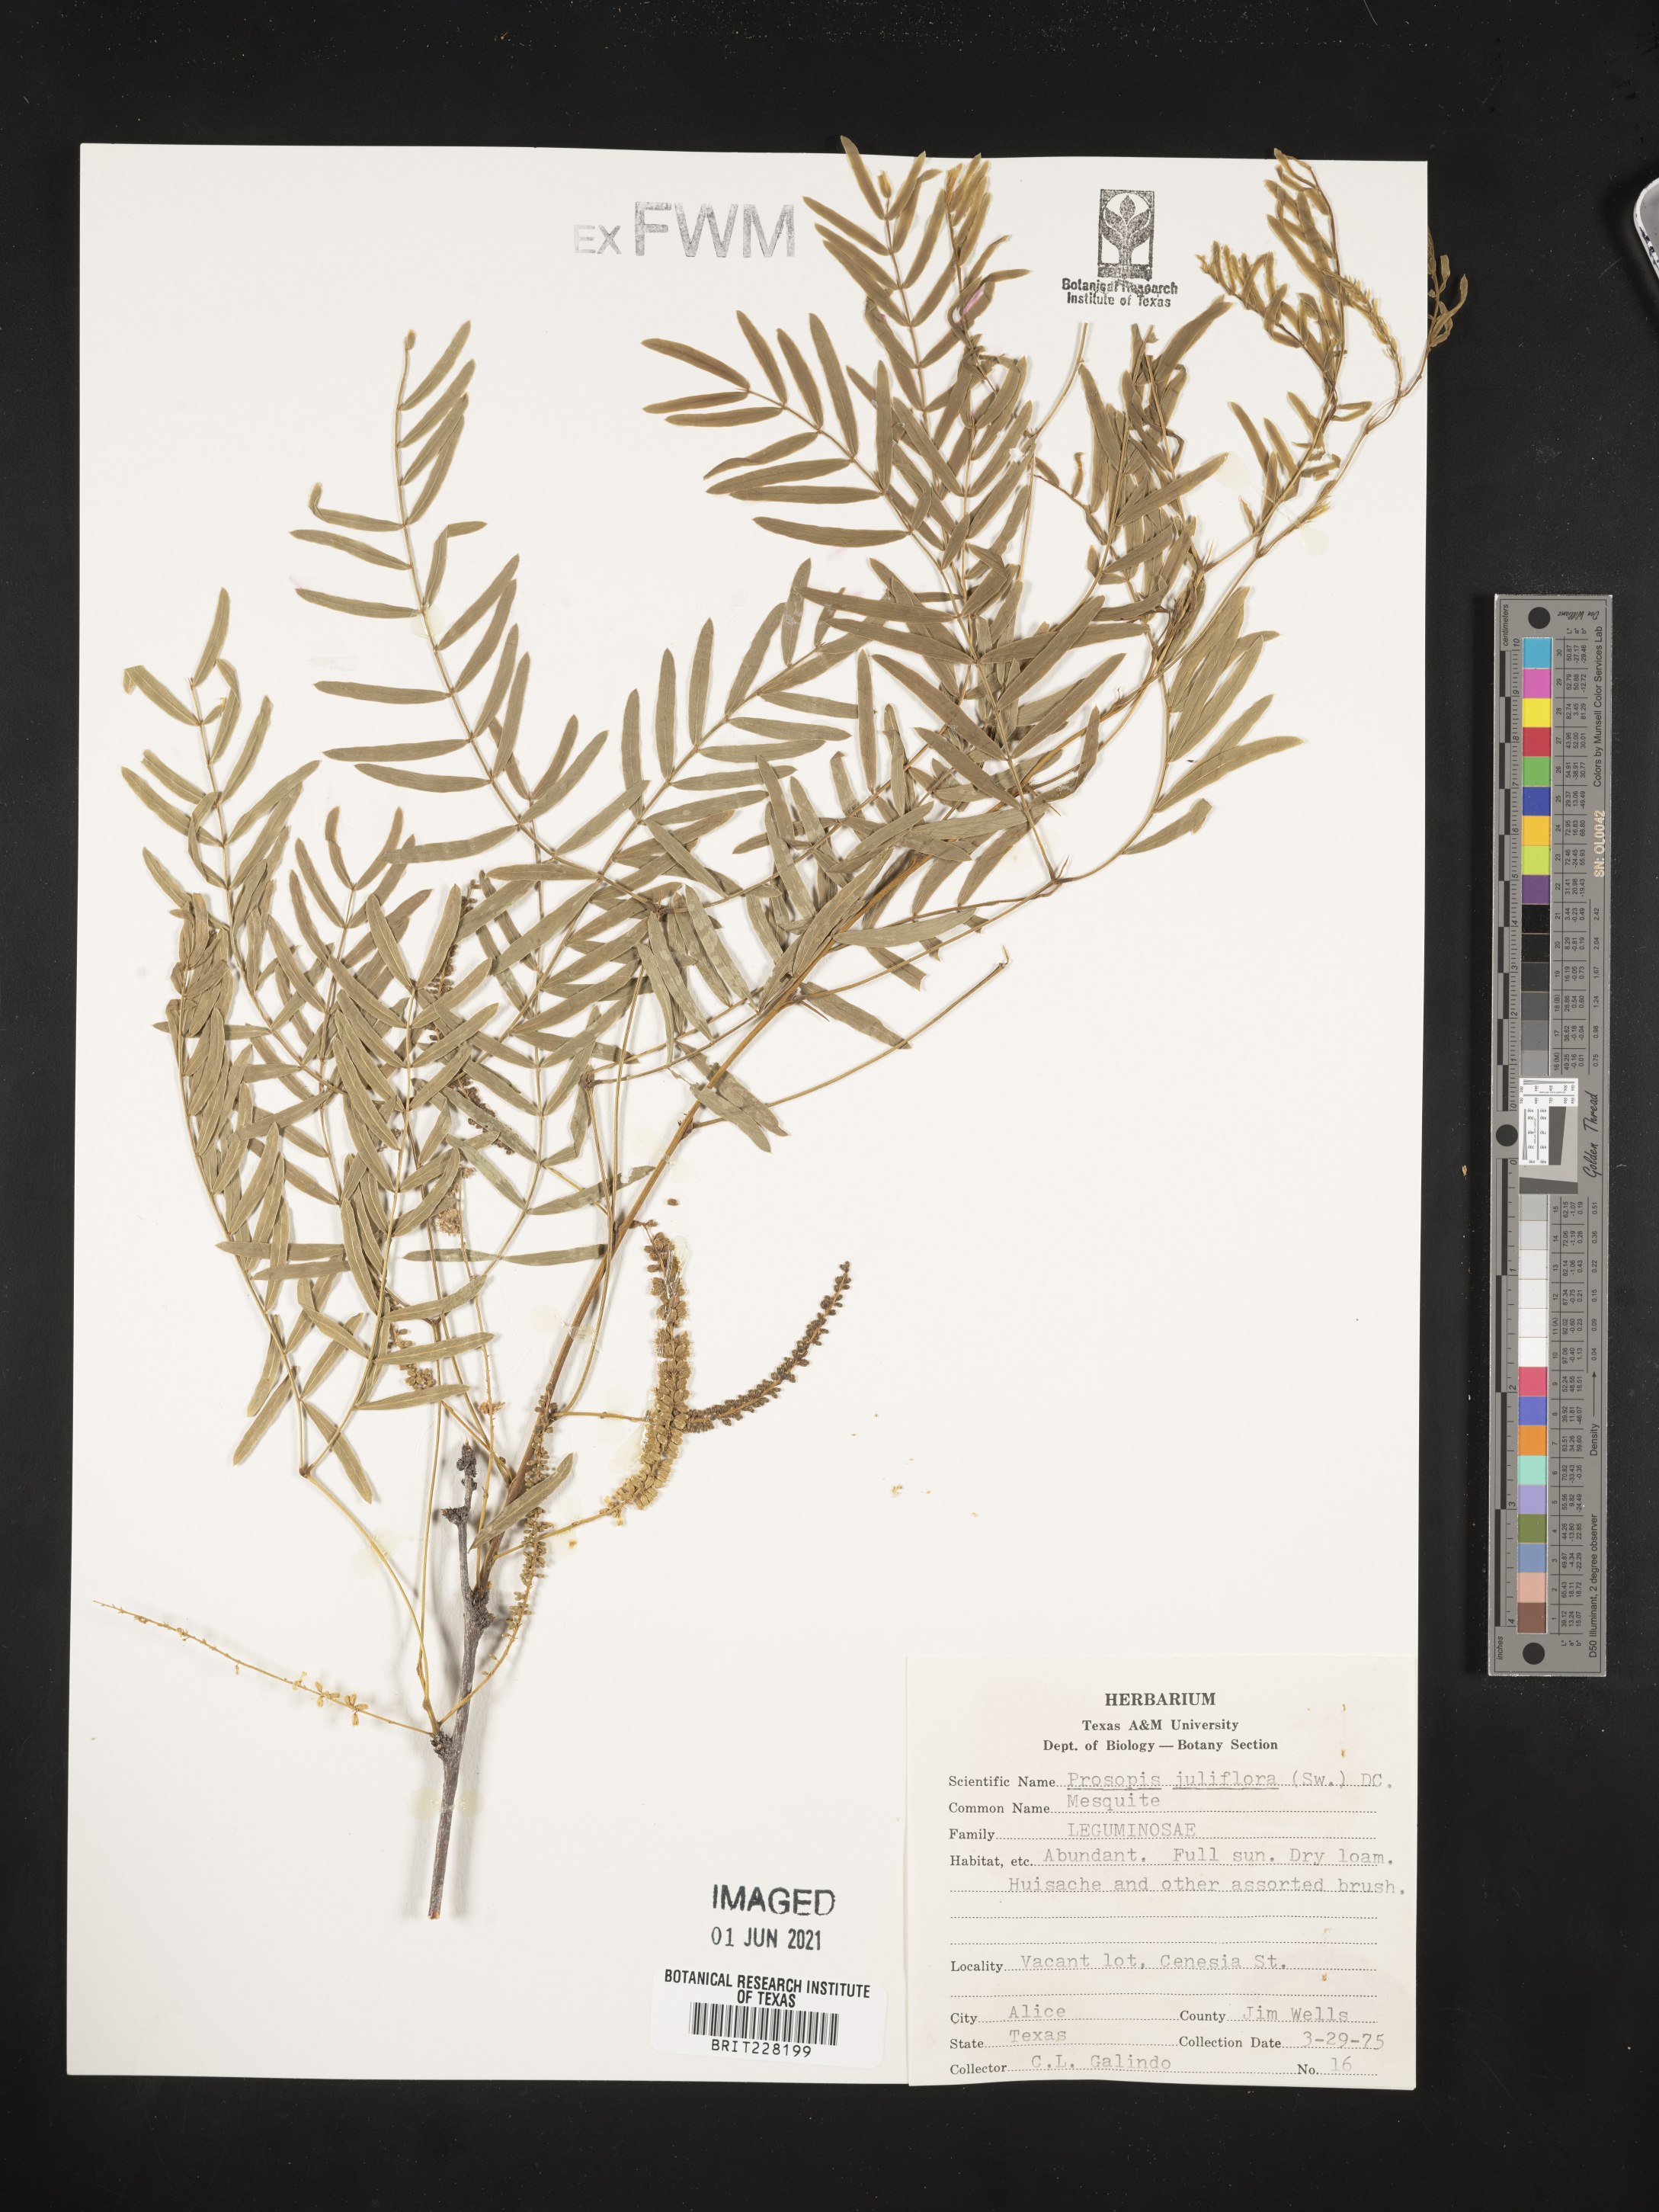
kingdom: Plantae
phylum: Tracheophyta
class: Magnoliopsida
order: Fabales
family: Fabaceae
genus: Prosopis
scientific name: Prosopis juliflora
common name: Mesquite
